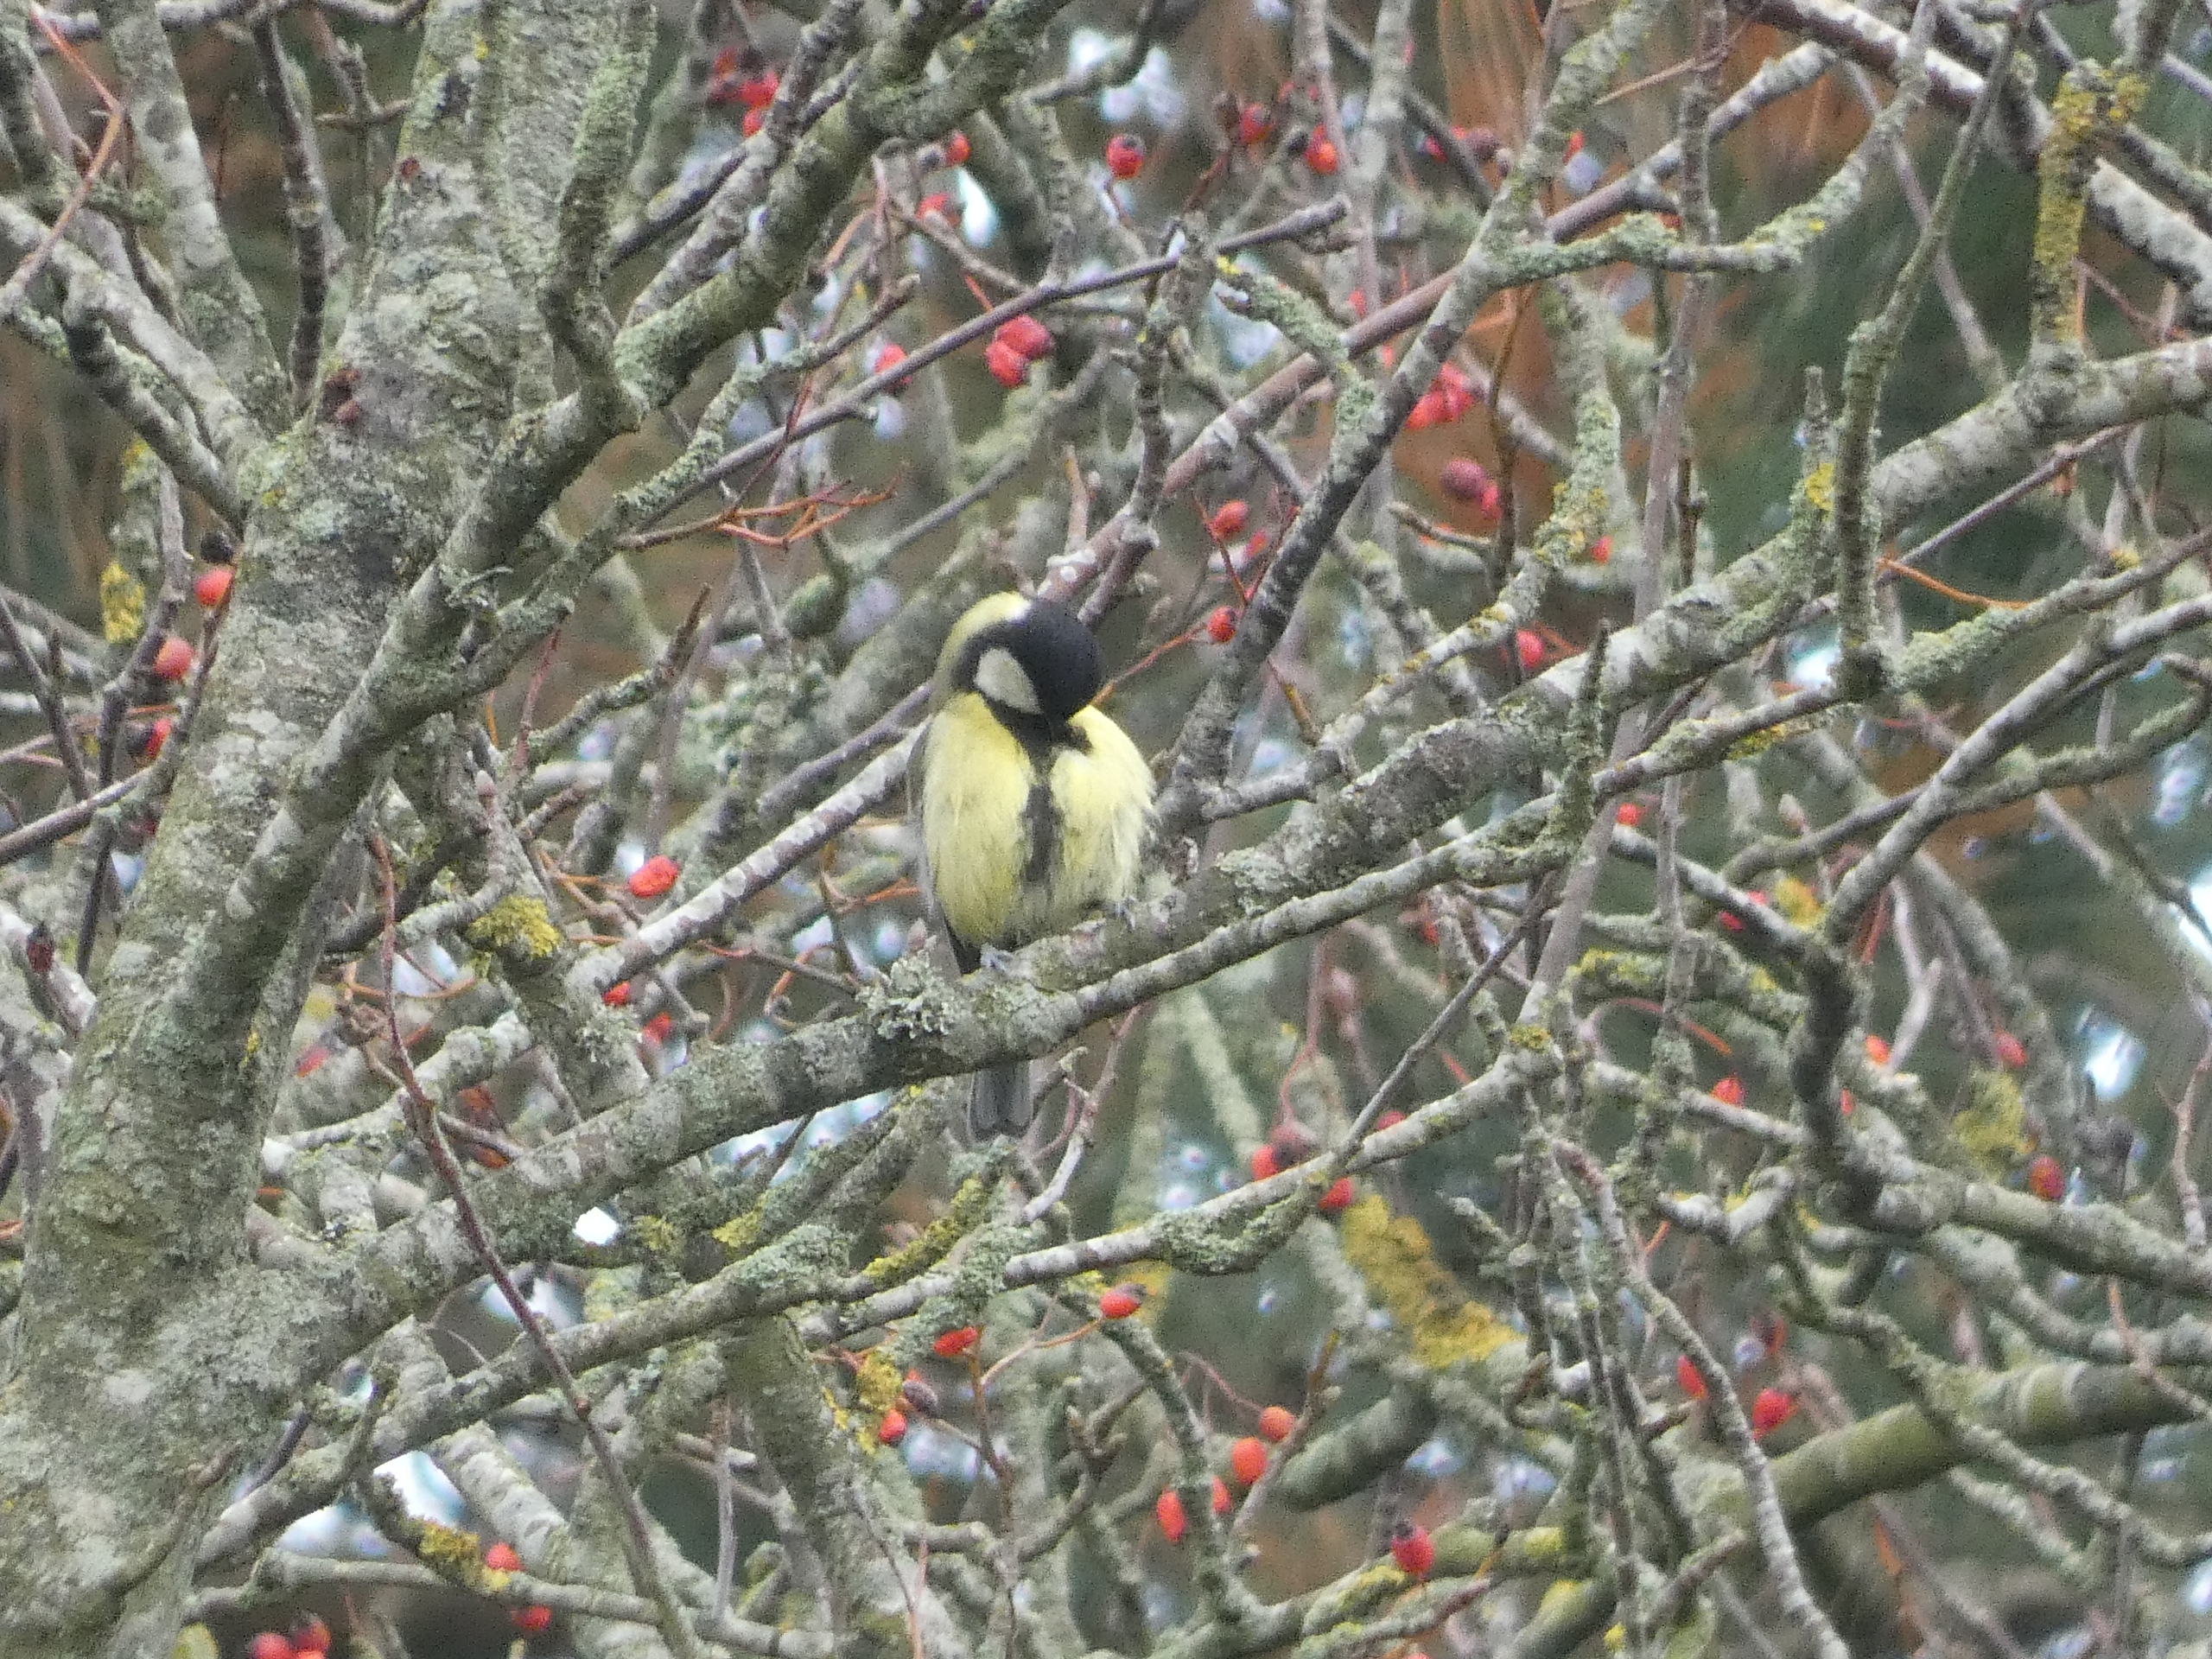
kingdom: Animalia
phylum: Chordata
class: Aves
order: Passeriformes
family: Paridae
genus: Parus
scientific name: Parus major
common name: Musvit
